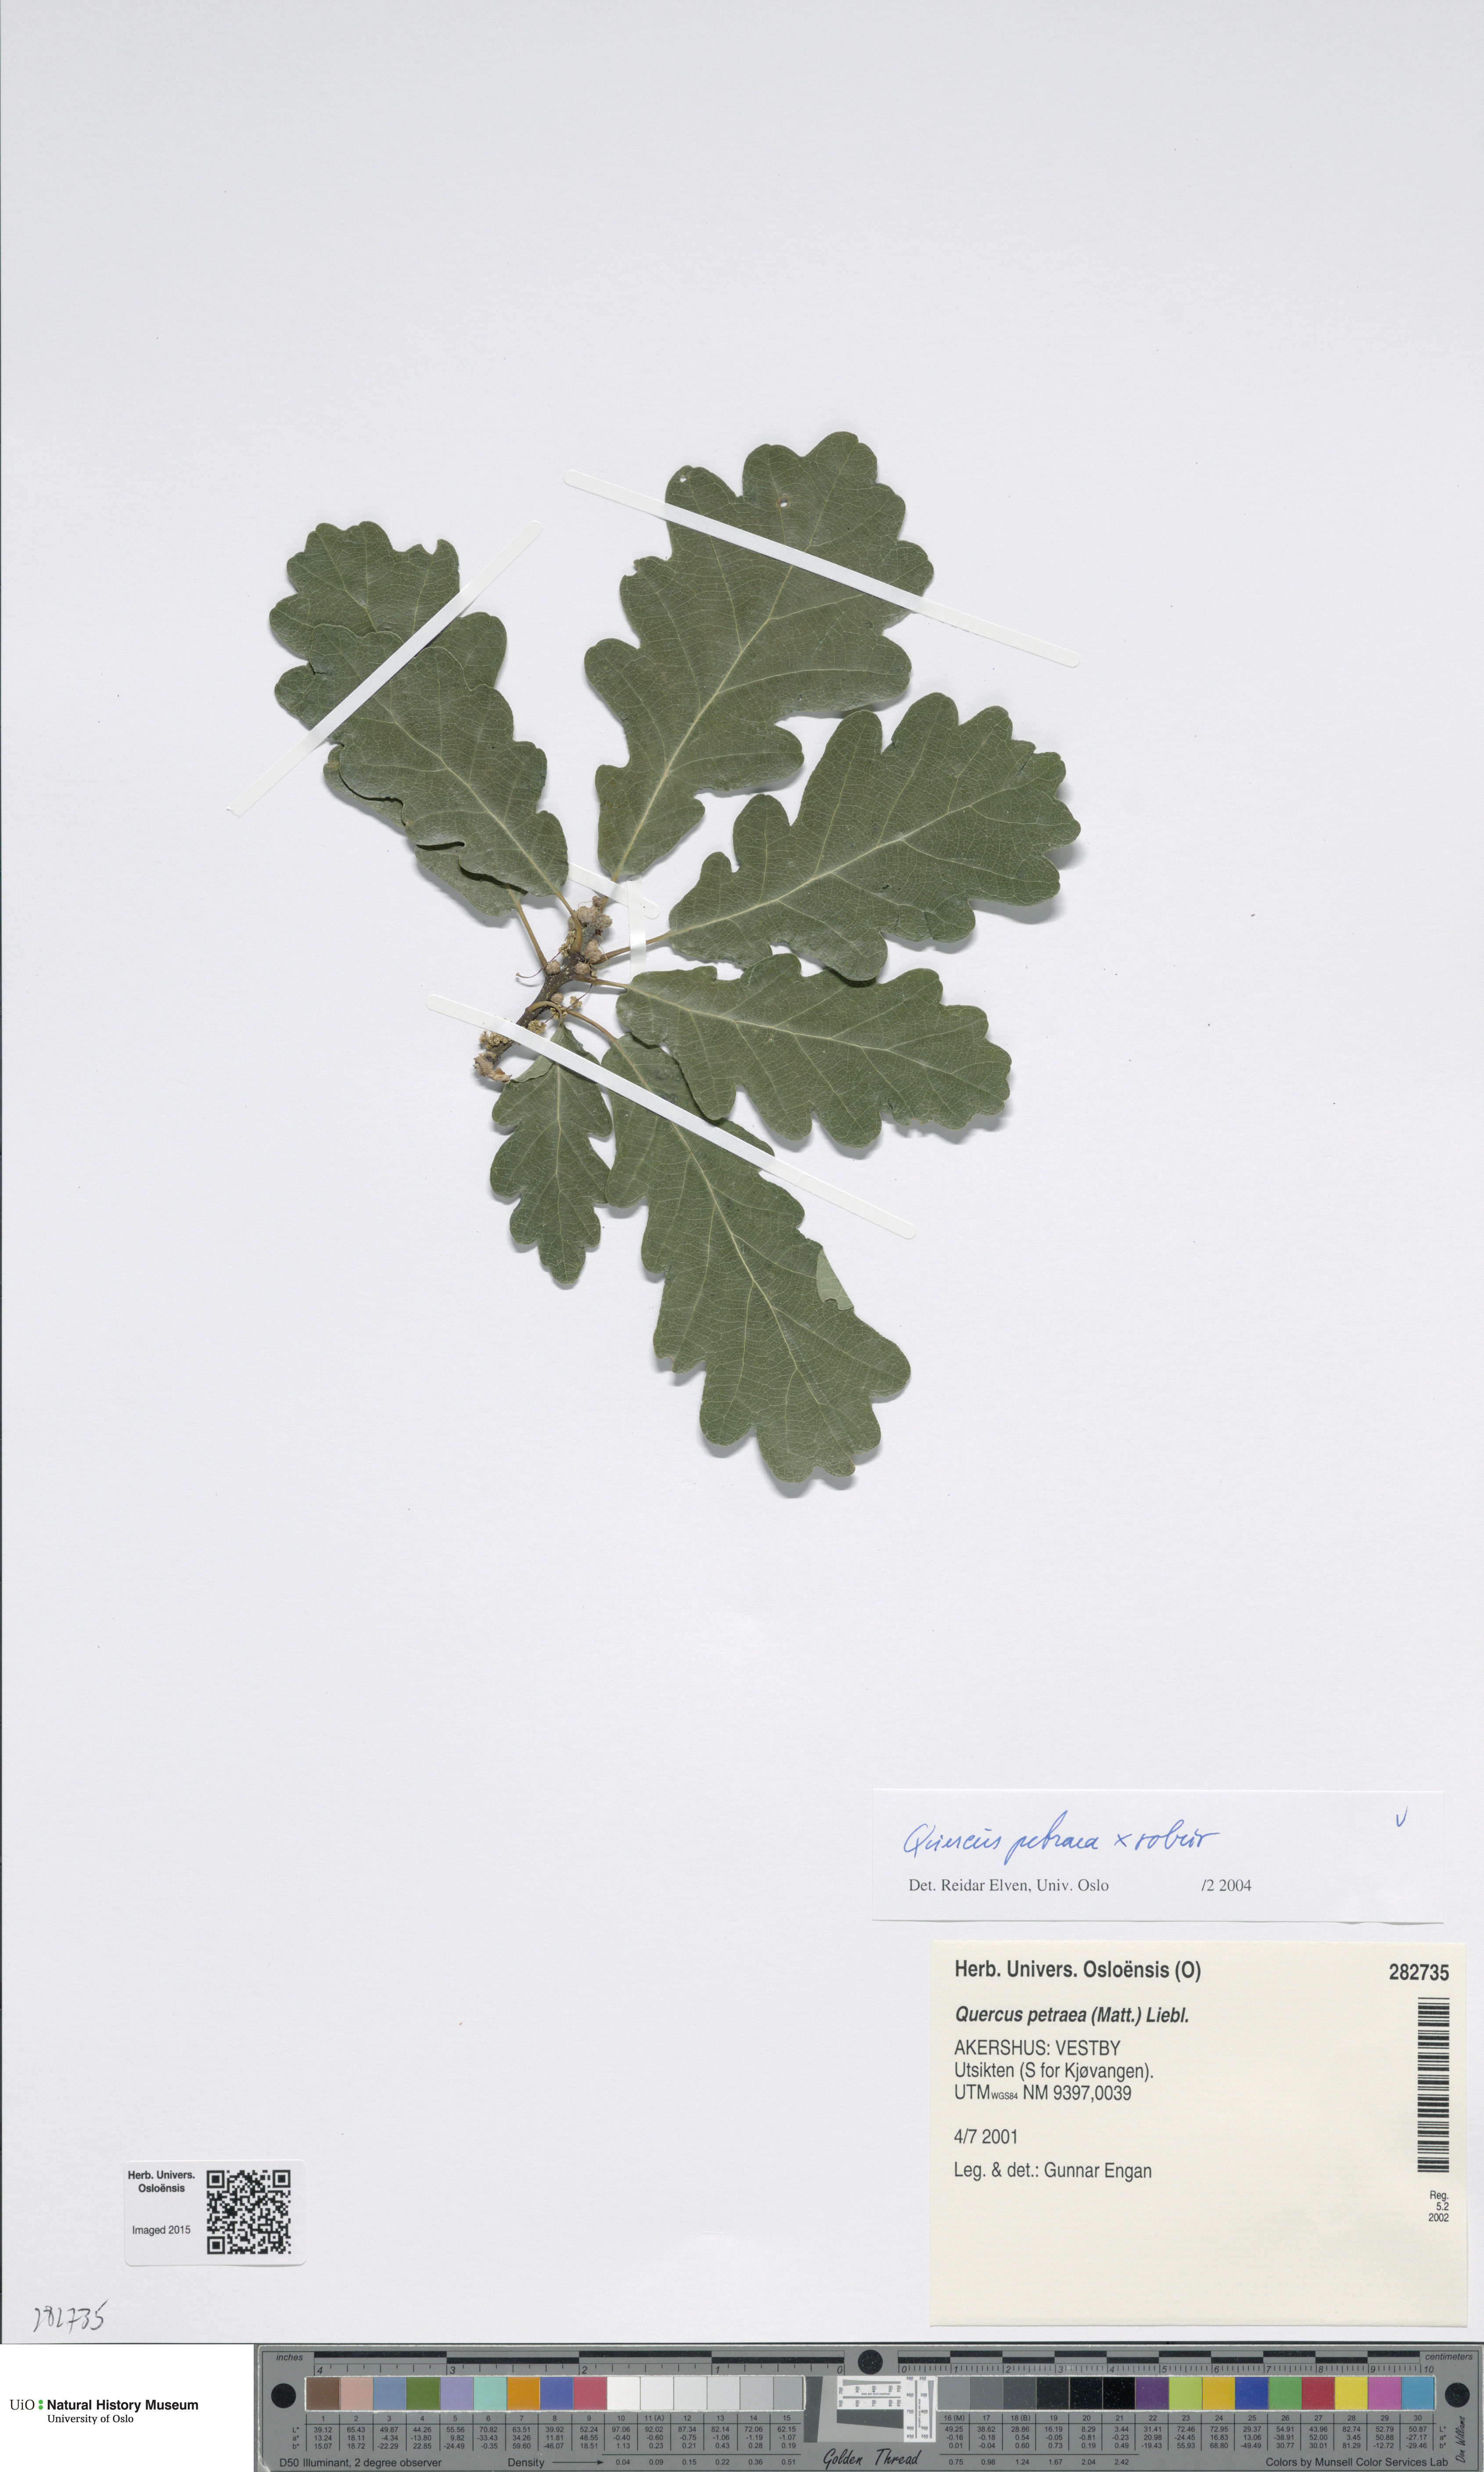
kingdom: Plantae
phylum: Tracheophyta
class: Magnoliopsida
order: Fagales
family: Fagaceae
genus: Quercus
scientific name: Quercus
